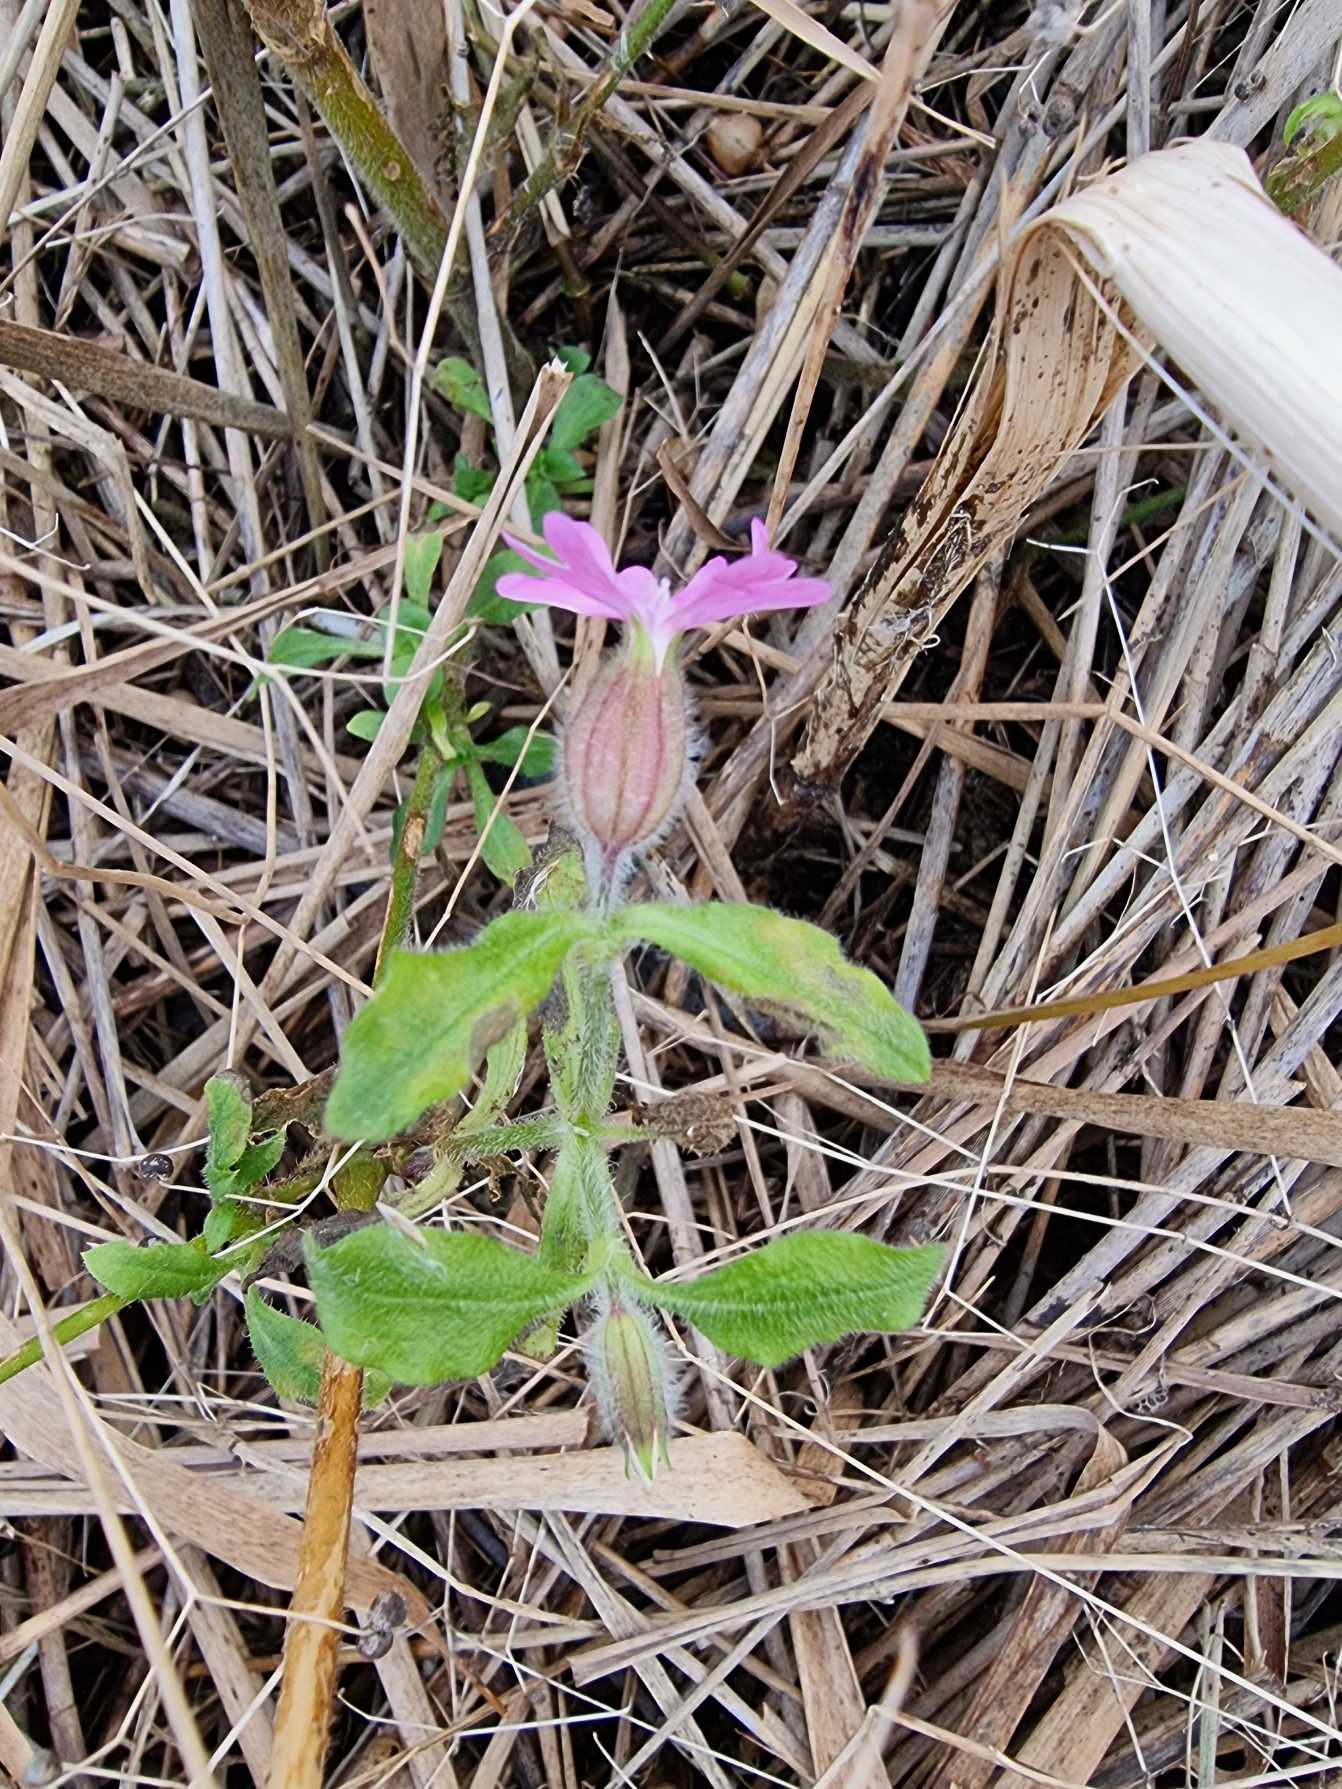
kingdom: Plantae
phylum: Tracheophyta
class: Magnoliopsida
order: Caryophyllales
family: Caryophyllaceae
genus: Silene
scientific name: Silene dioica
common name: Dagpragtstjerne
